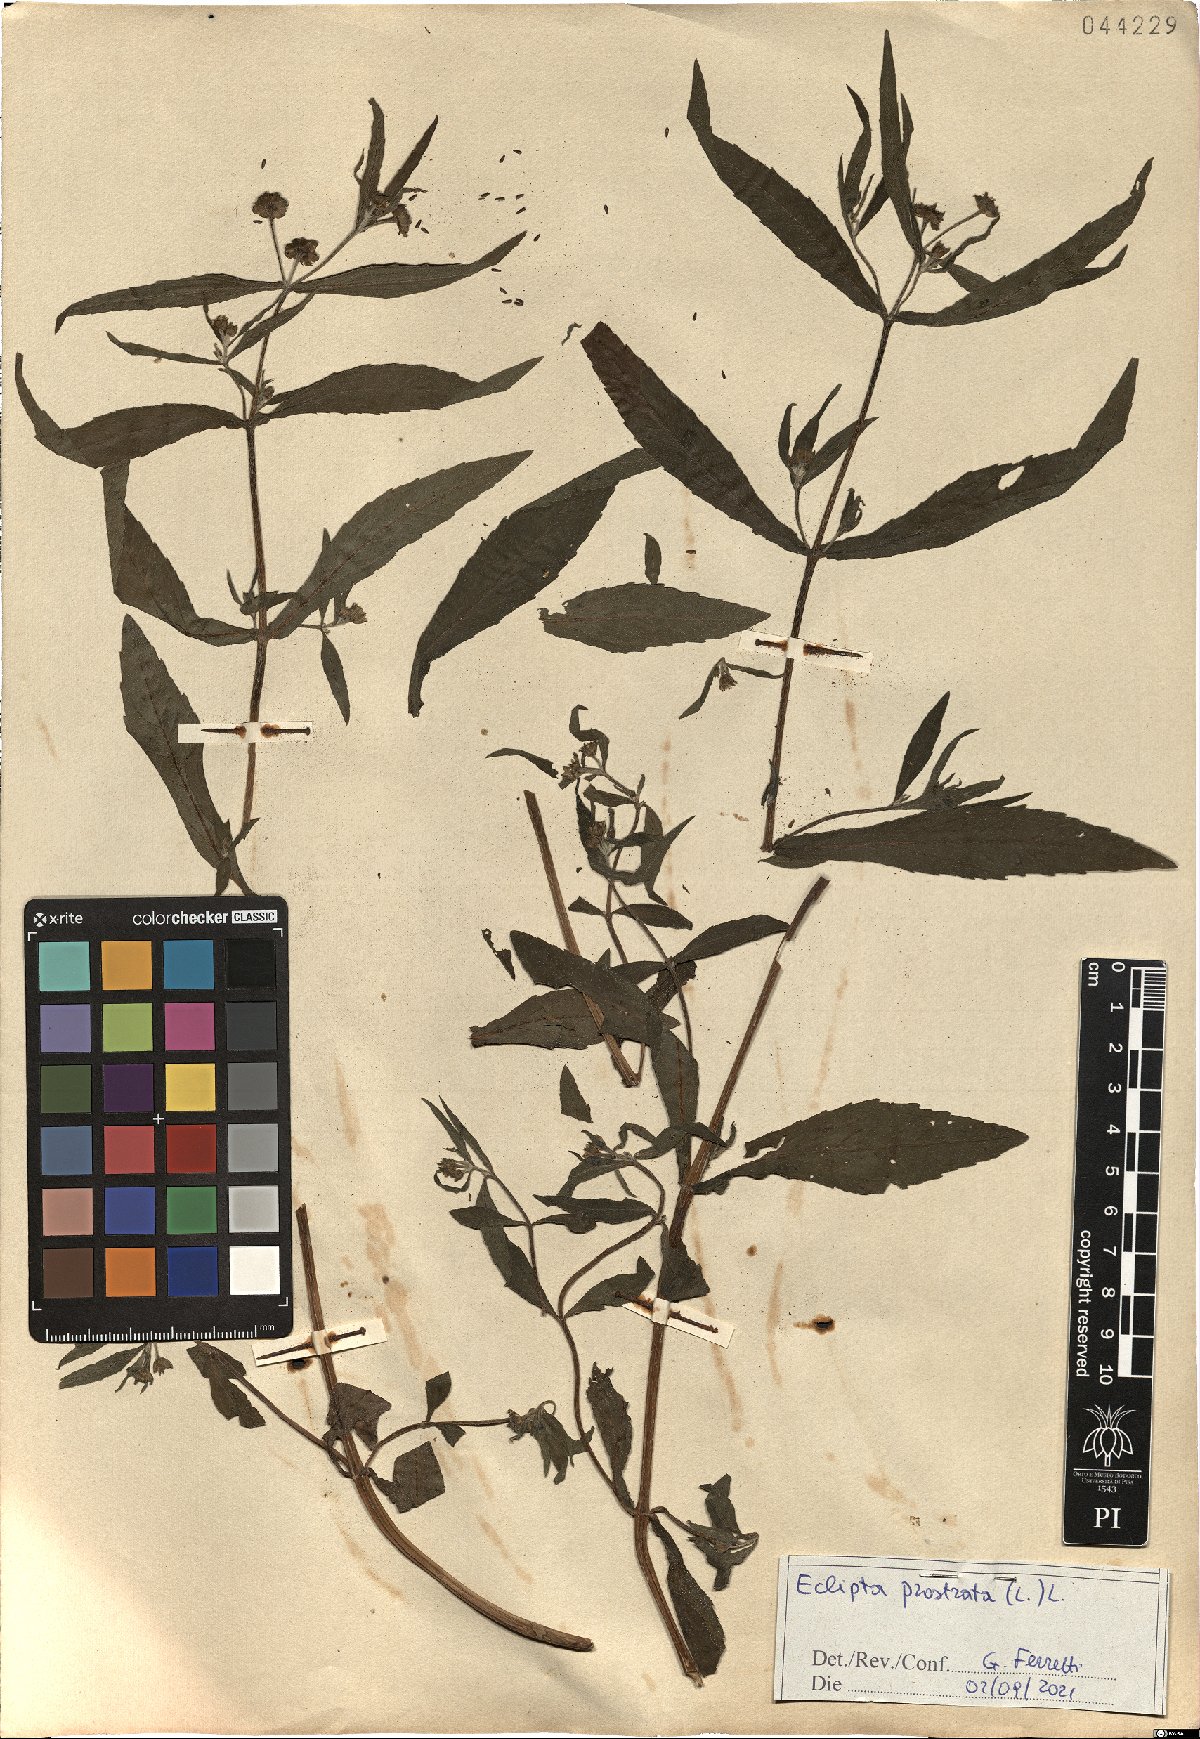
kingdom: Plantae
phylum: Tracheophyta
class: Magnoliopsida
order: Asterales
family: Asteraceae
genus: Eclipta
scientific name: Eclipta prostrata
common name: False daisy
